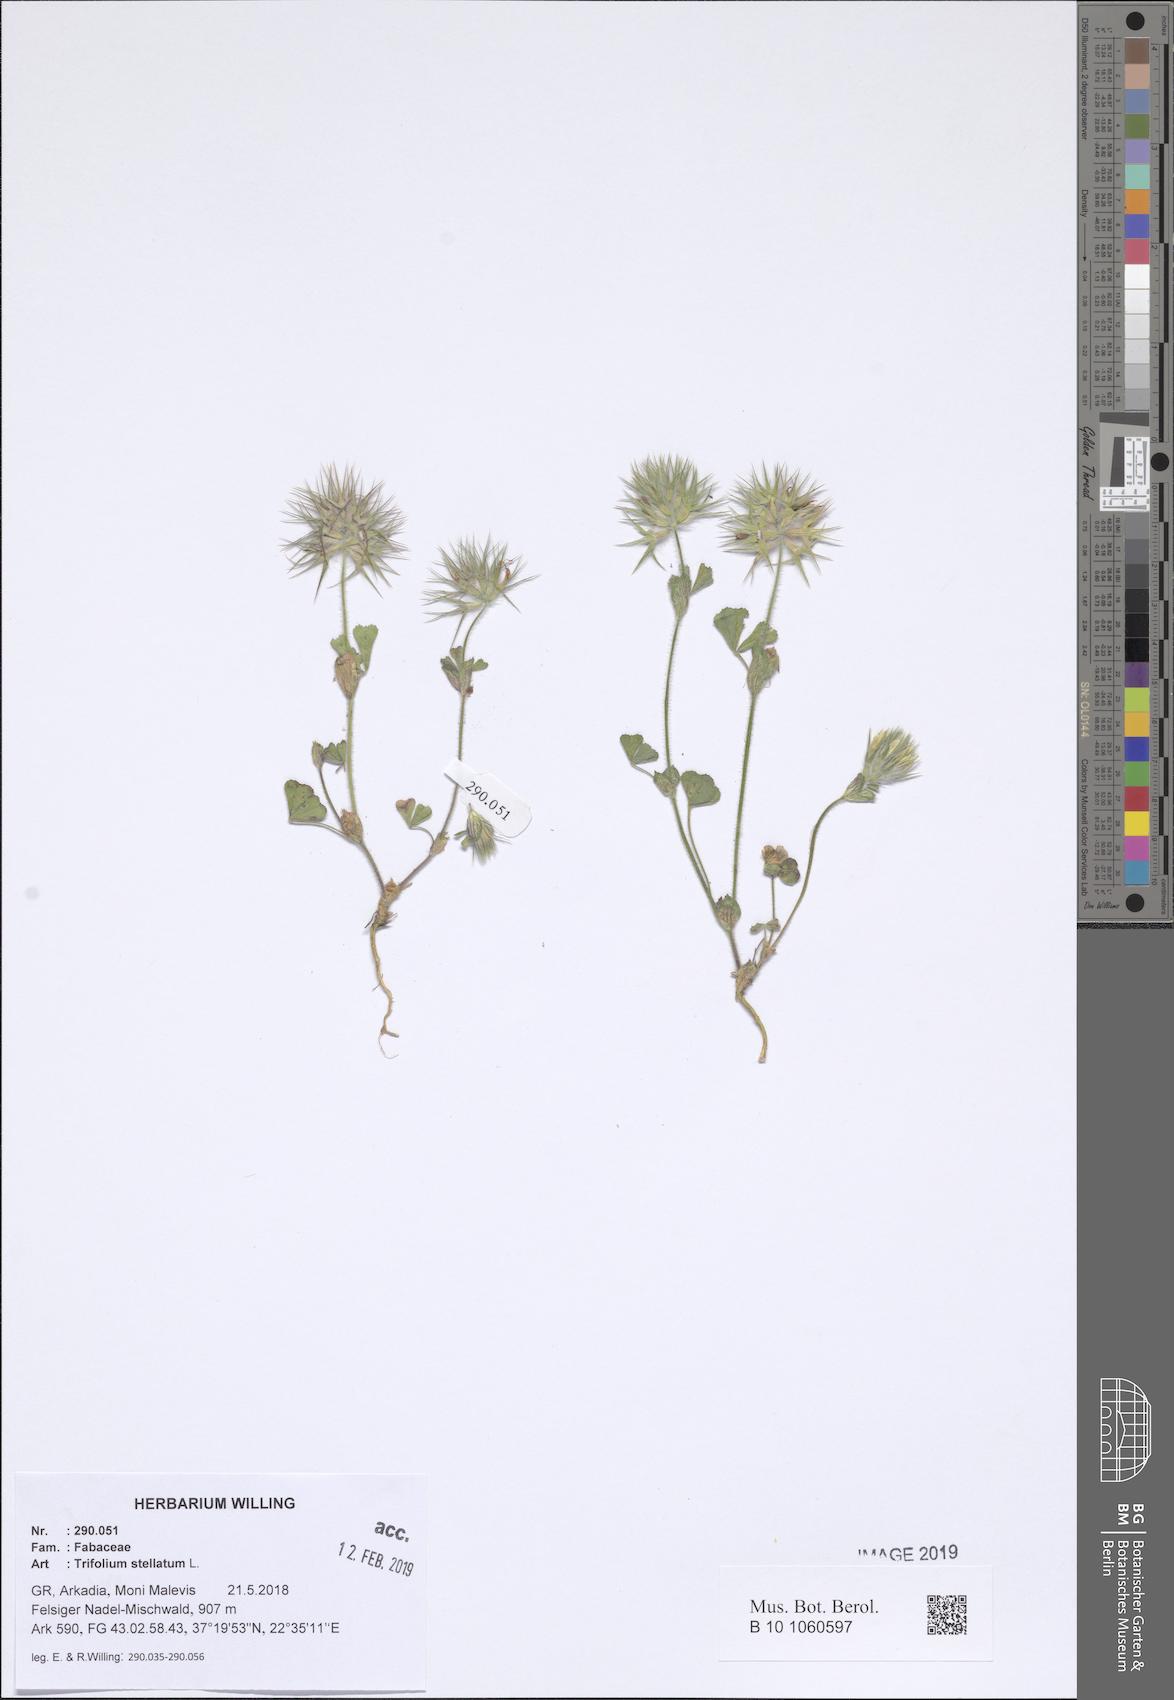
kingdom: Plantae
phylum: Tracheophyta
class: Magnoliopsida
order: Fabales
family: Fabaceae
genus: Trifolium
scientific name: Trifolium stellatum
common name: Starry clover
